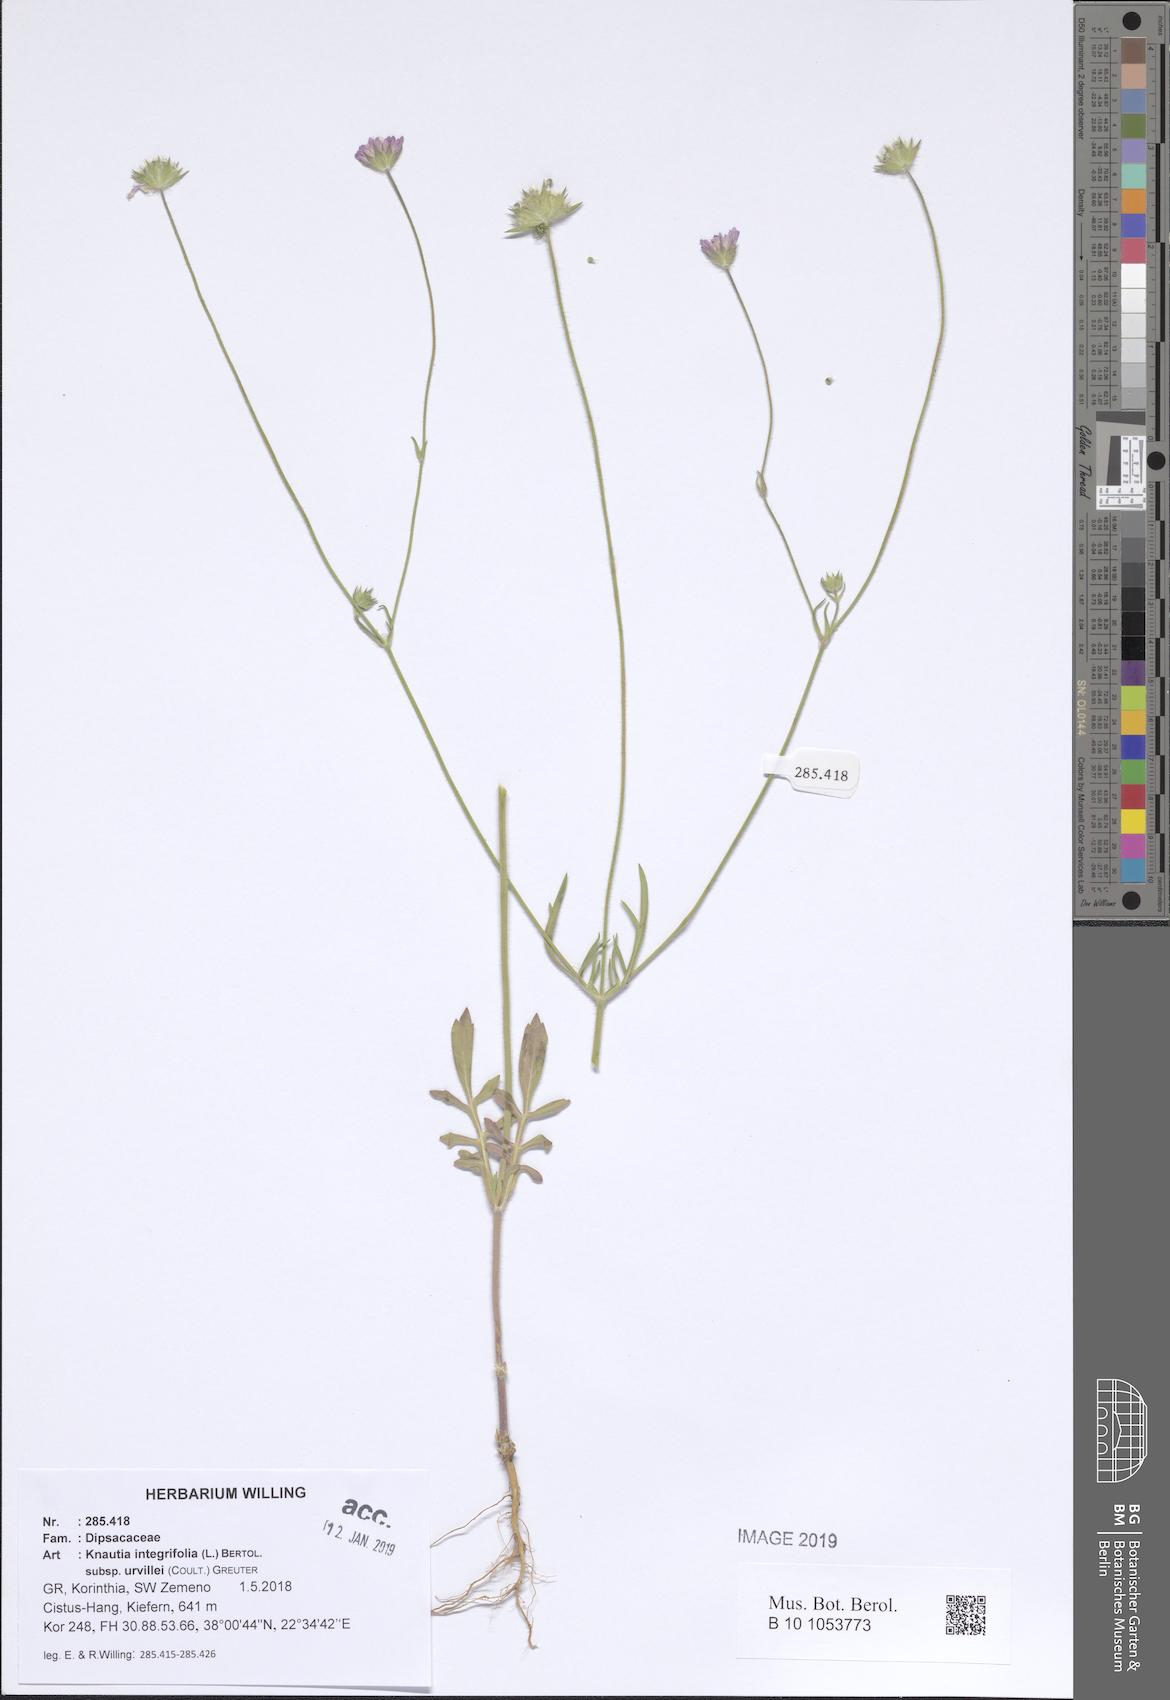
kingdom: Plantae
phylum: Tracheophyta
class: Magnoliopsida
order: Dipsacales
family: Caprifoliaceae
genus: Knautia
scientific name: Knautia integrifolia
